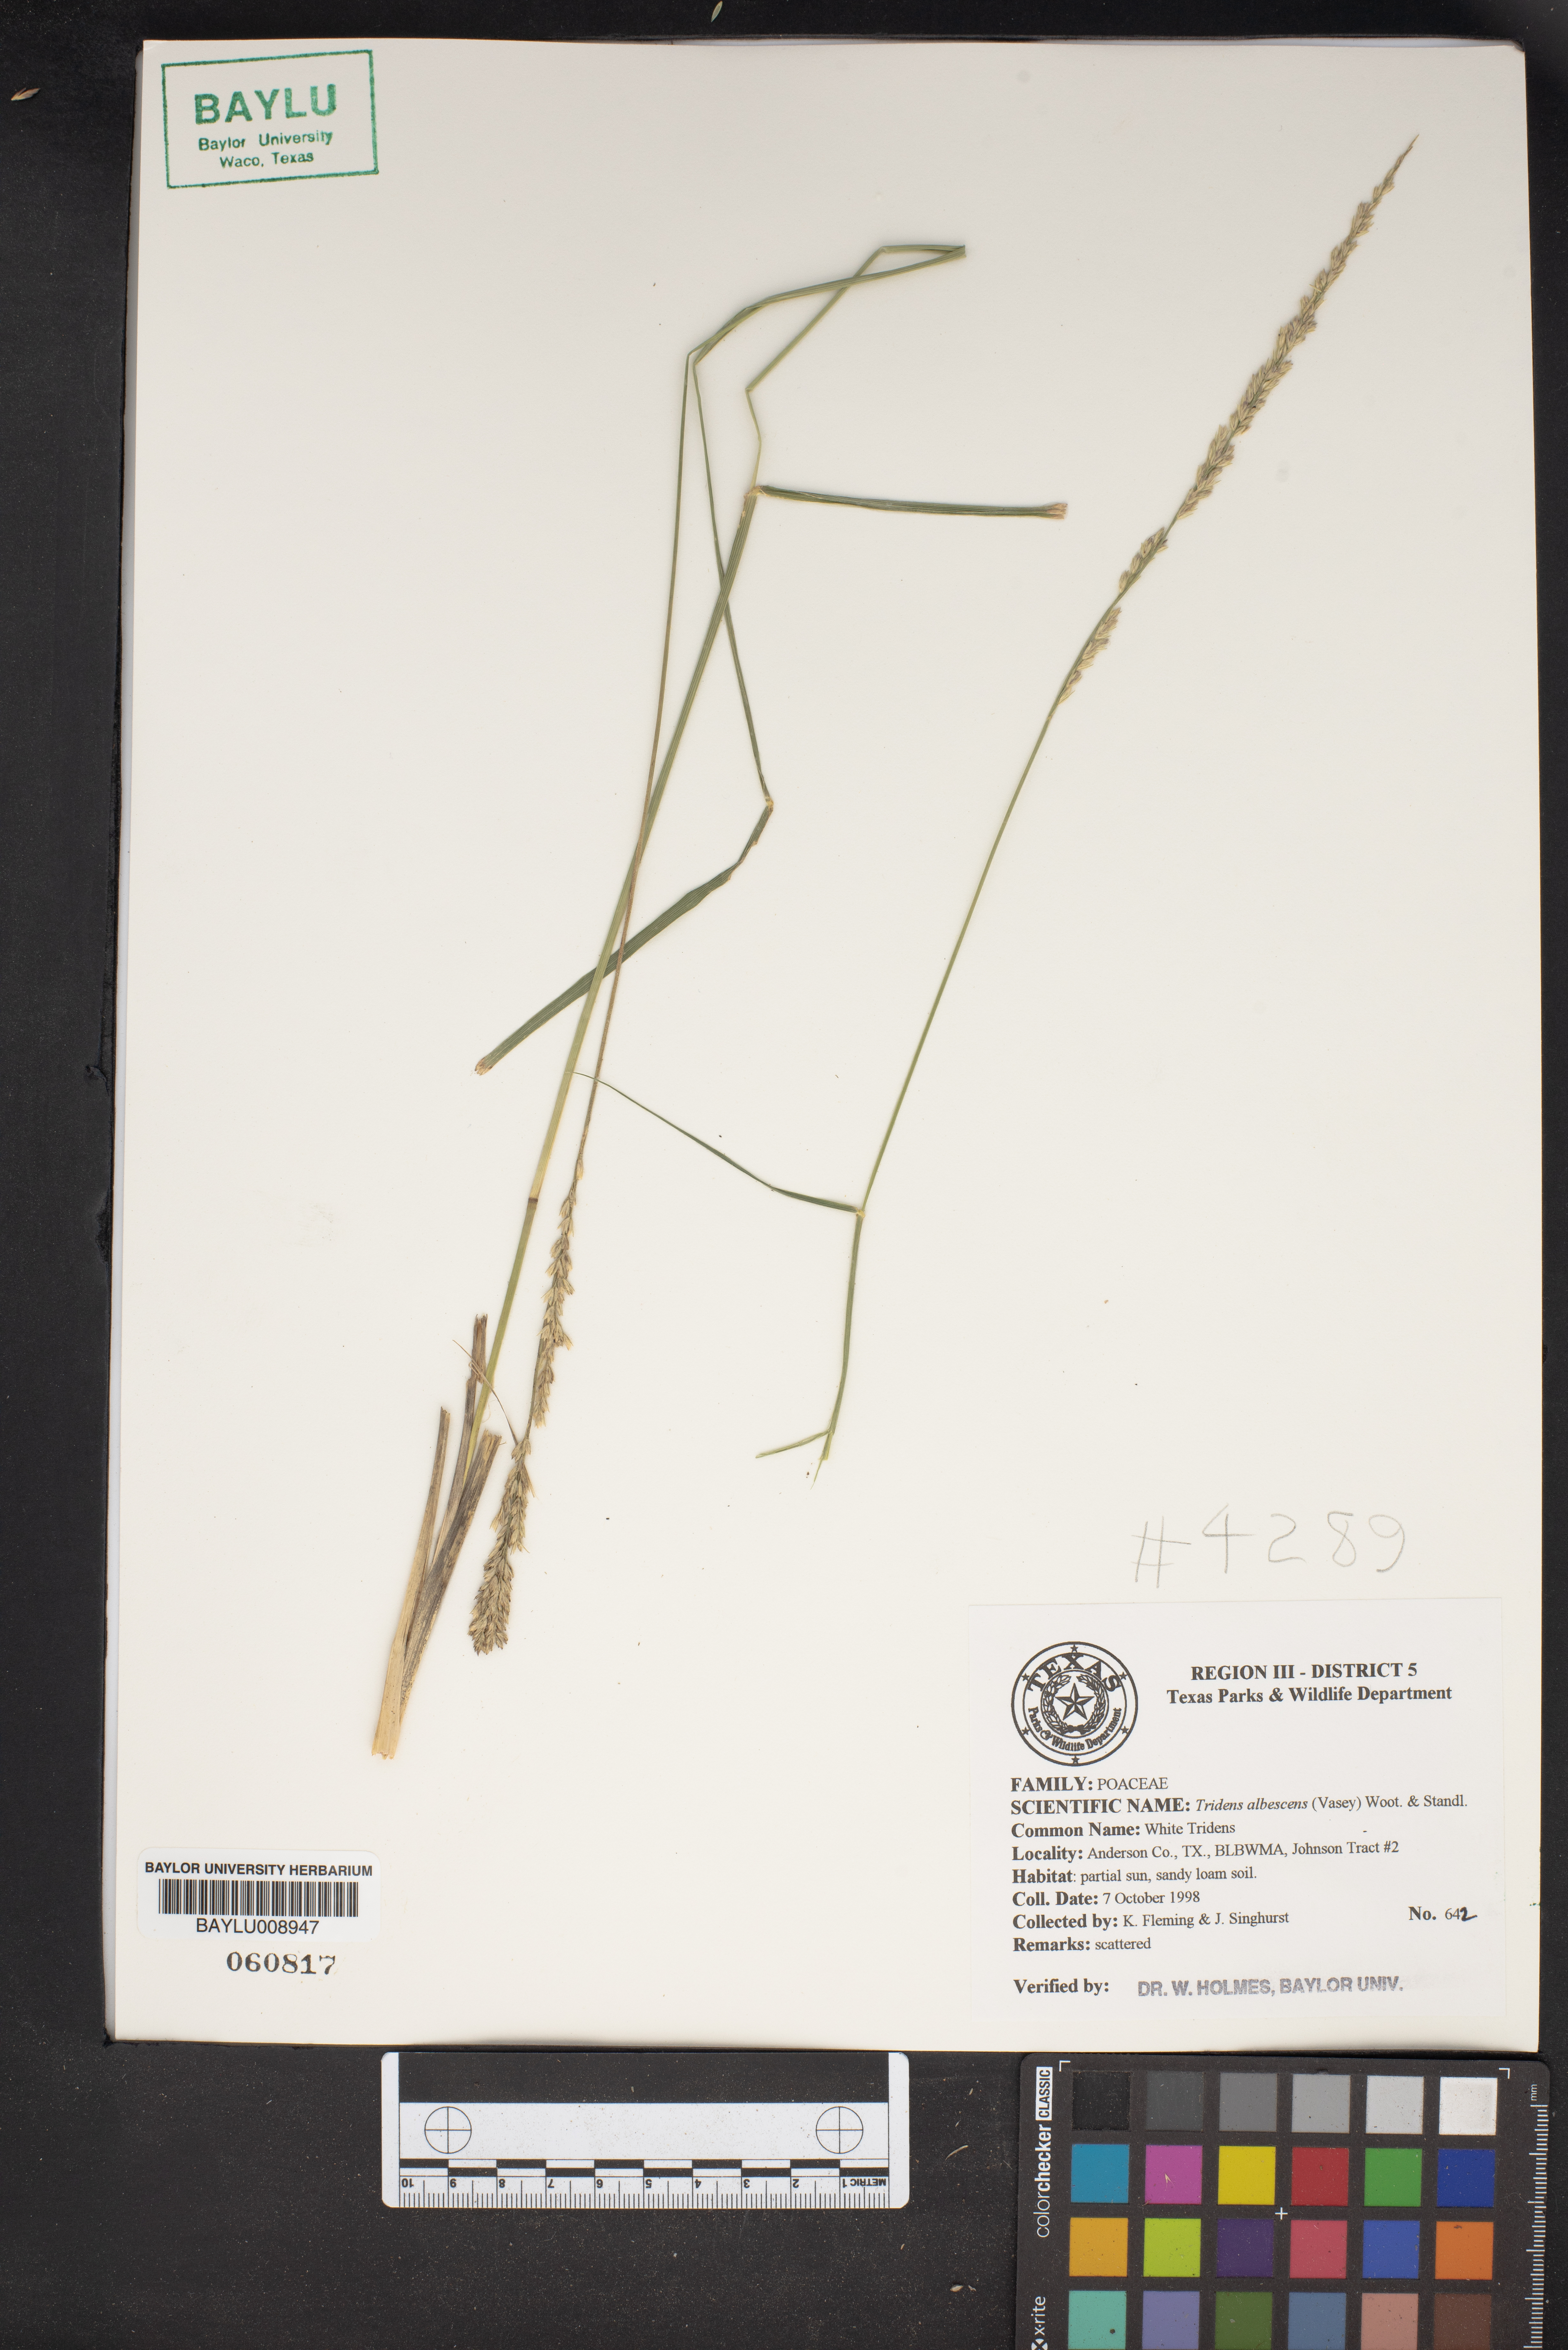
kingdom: Plantae
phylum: Tracheophyta
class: Liliopsida
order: Poales
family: Poaceae
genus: Tridens
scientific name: Tridens albescens
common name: White tridens
